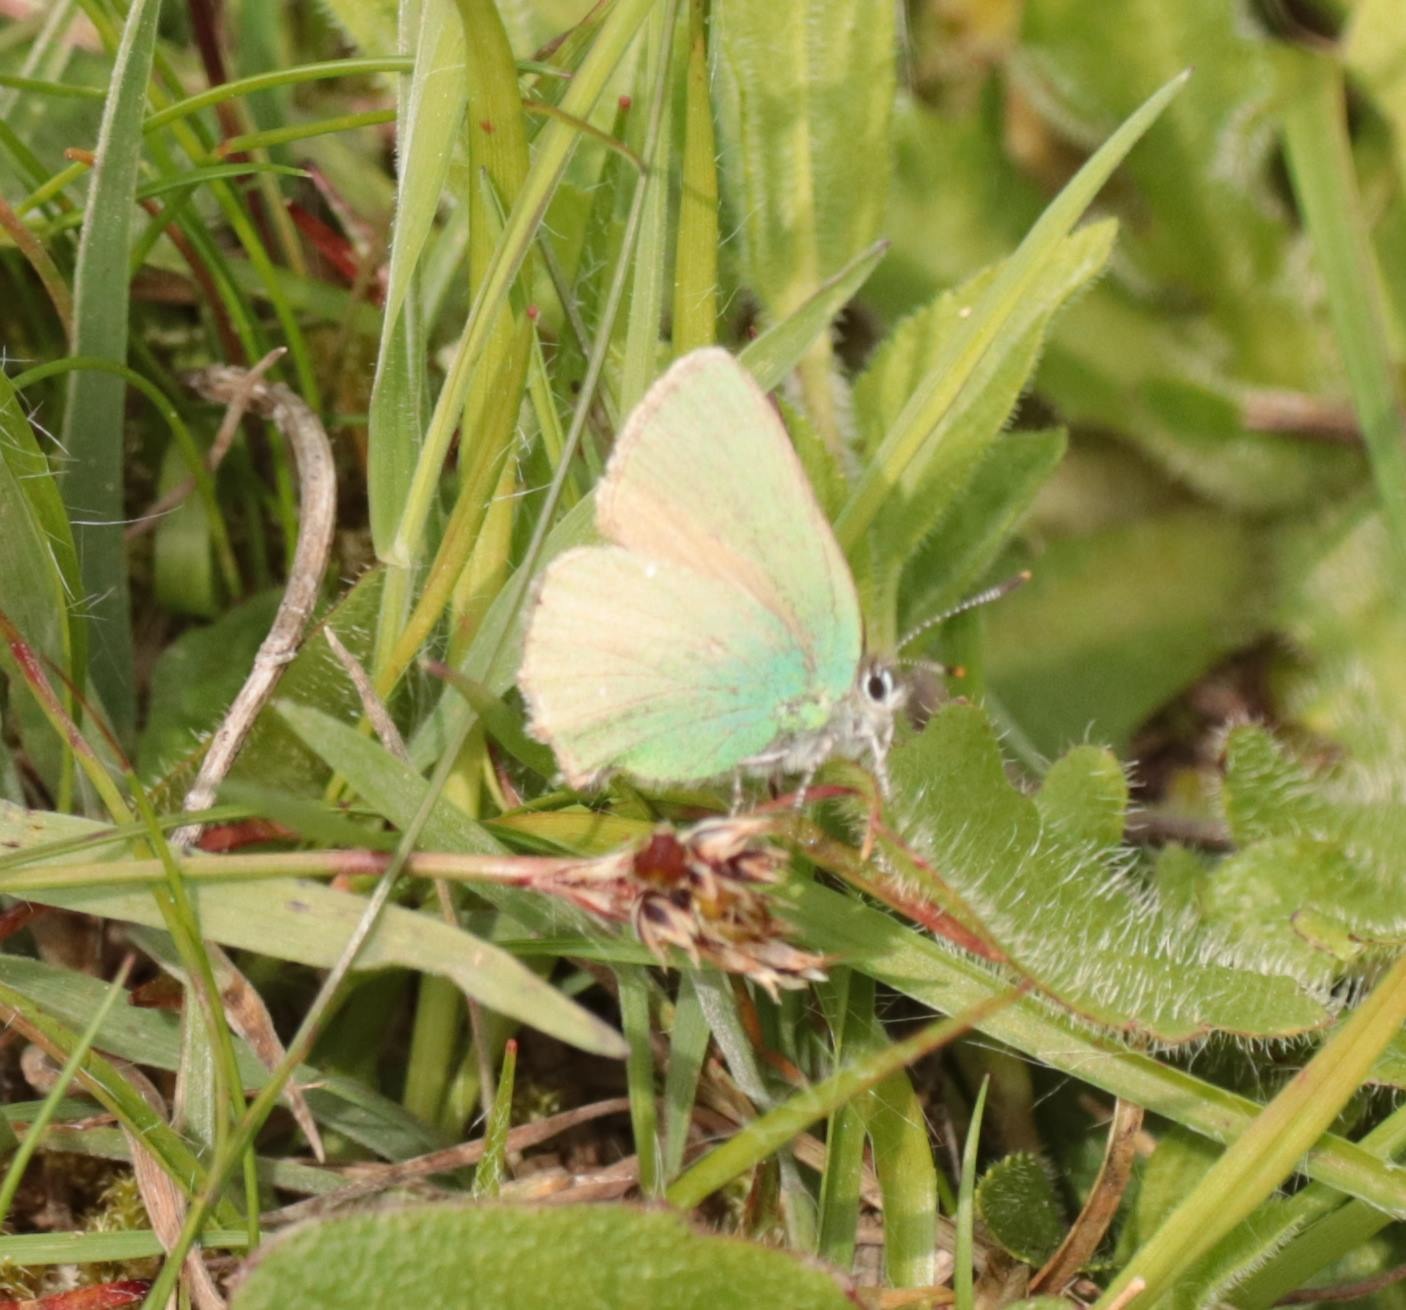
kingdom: Animalia
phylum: Arthropoda
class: Insecta
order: Lepidoptera
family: Lycaenidae
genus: Callophrys
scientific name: Callophrys rubi
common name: Grøn busksommerfugl
